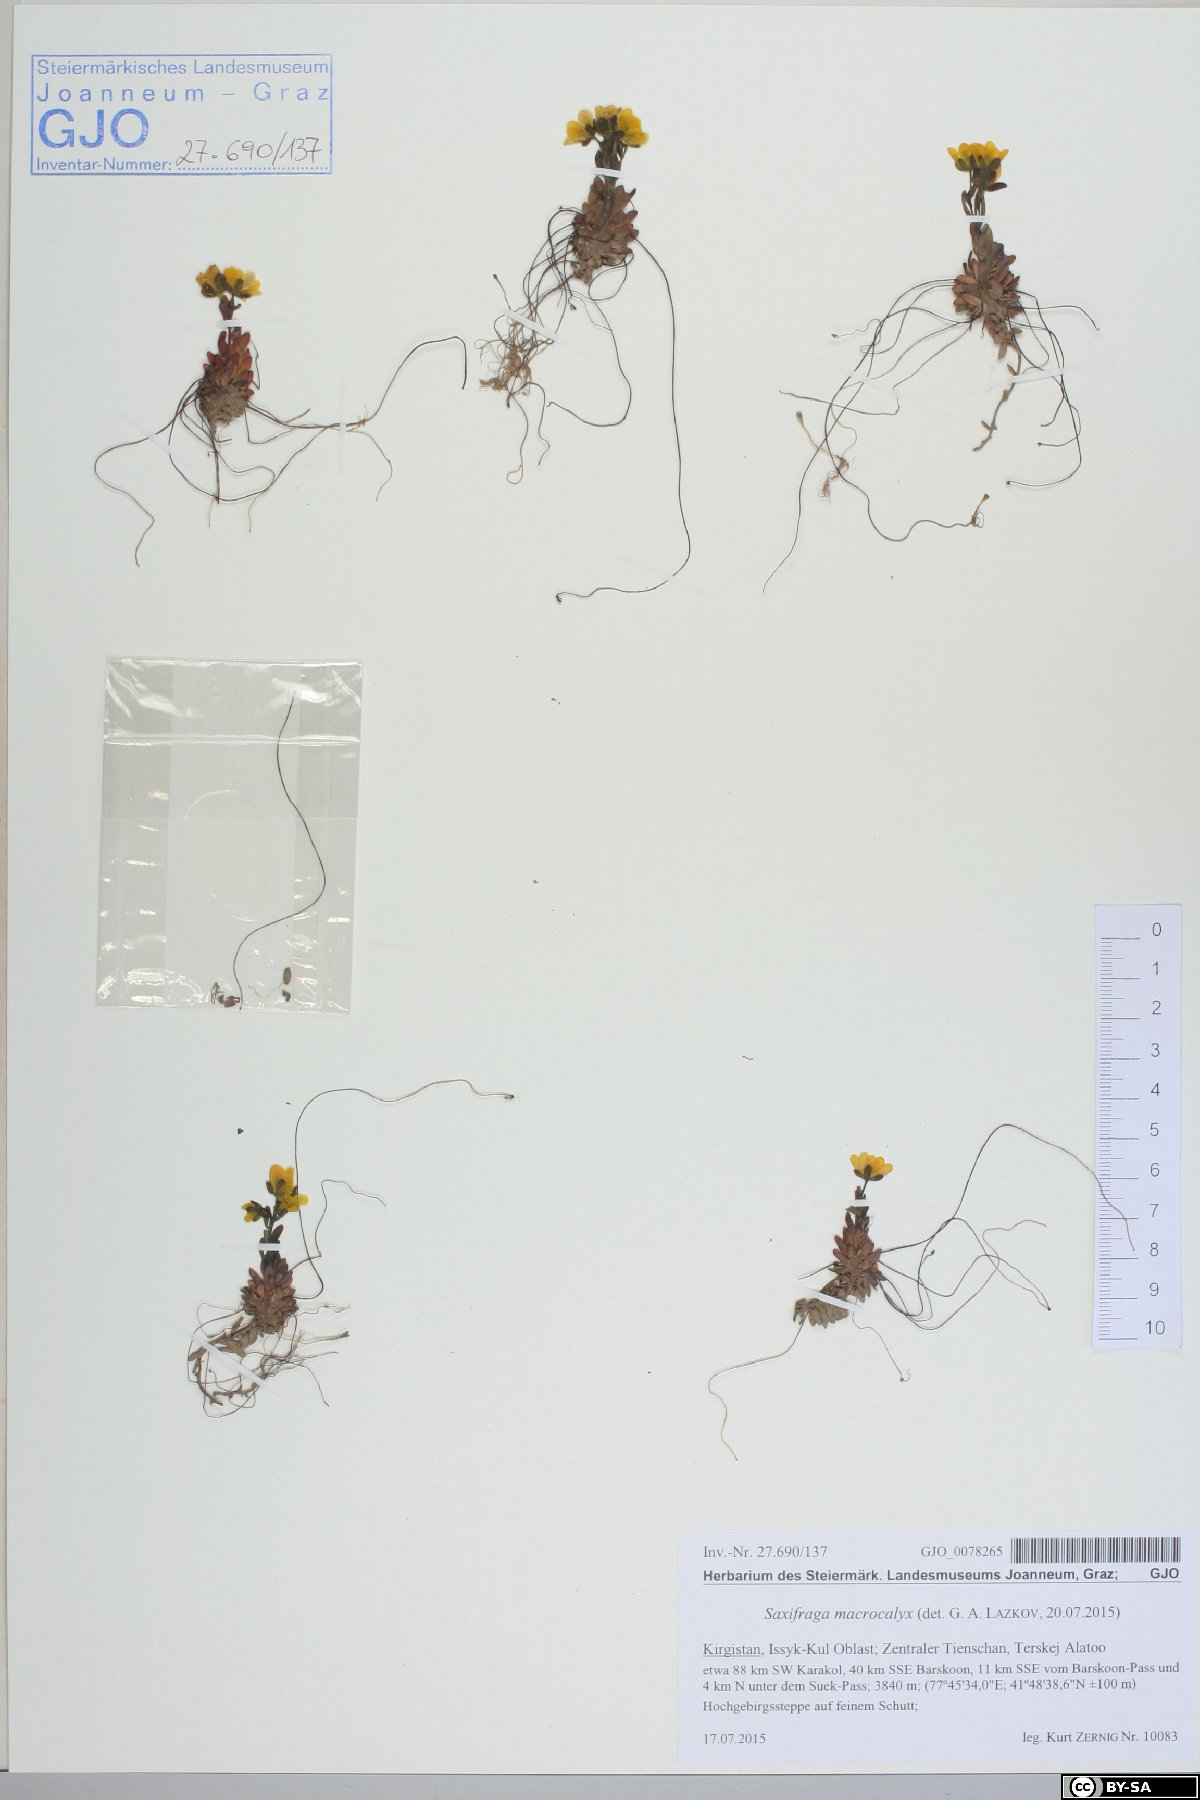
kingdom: Plantae
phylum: Tracheophyta
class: Magnoliopsida
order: Saxifragales
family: Saxifragaceae
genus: Saxifraga
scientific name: Saxifraga flagellaris
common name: Spider saxifrage
